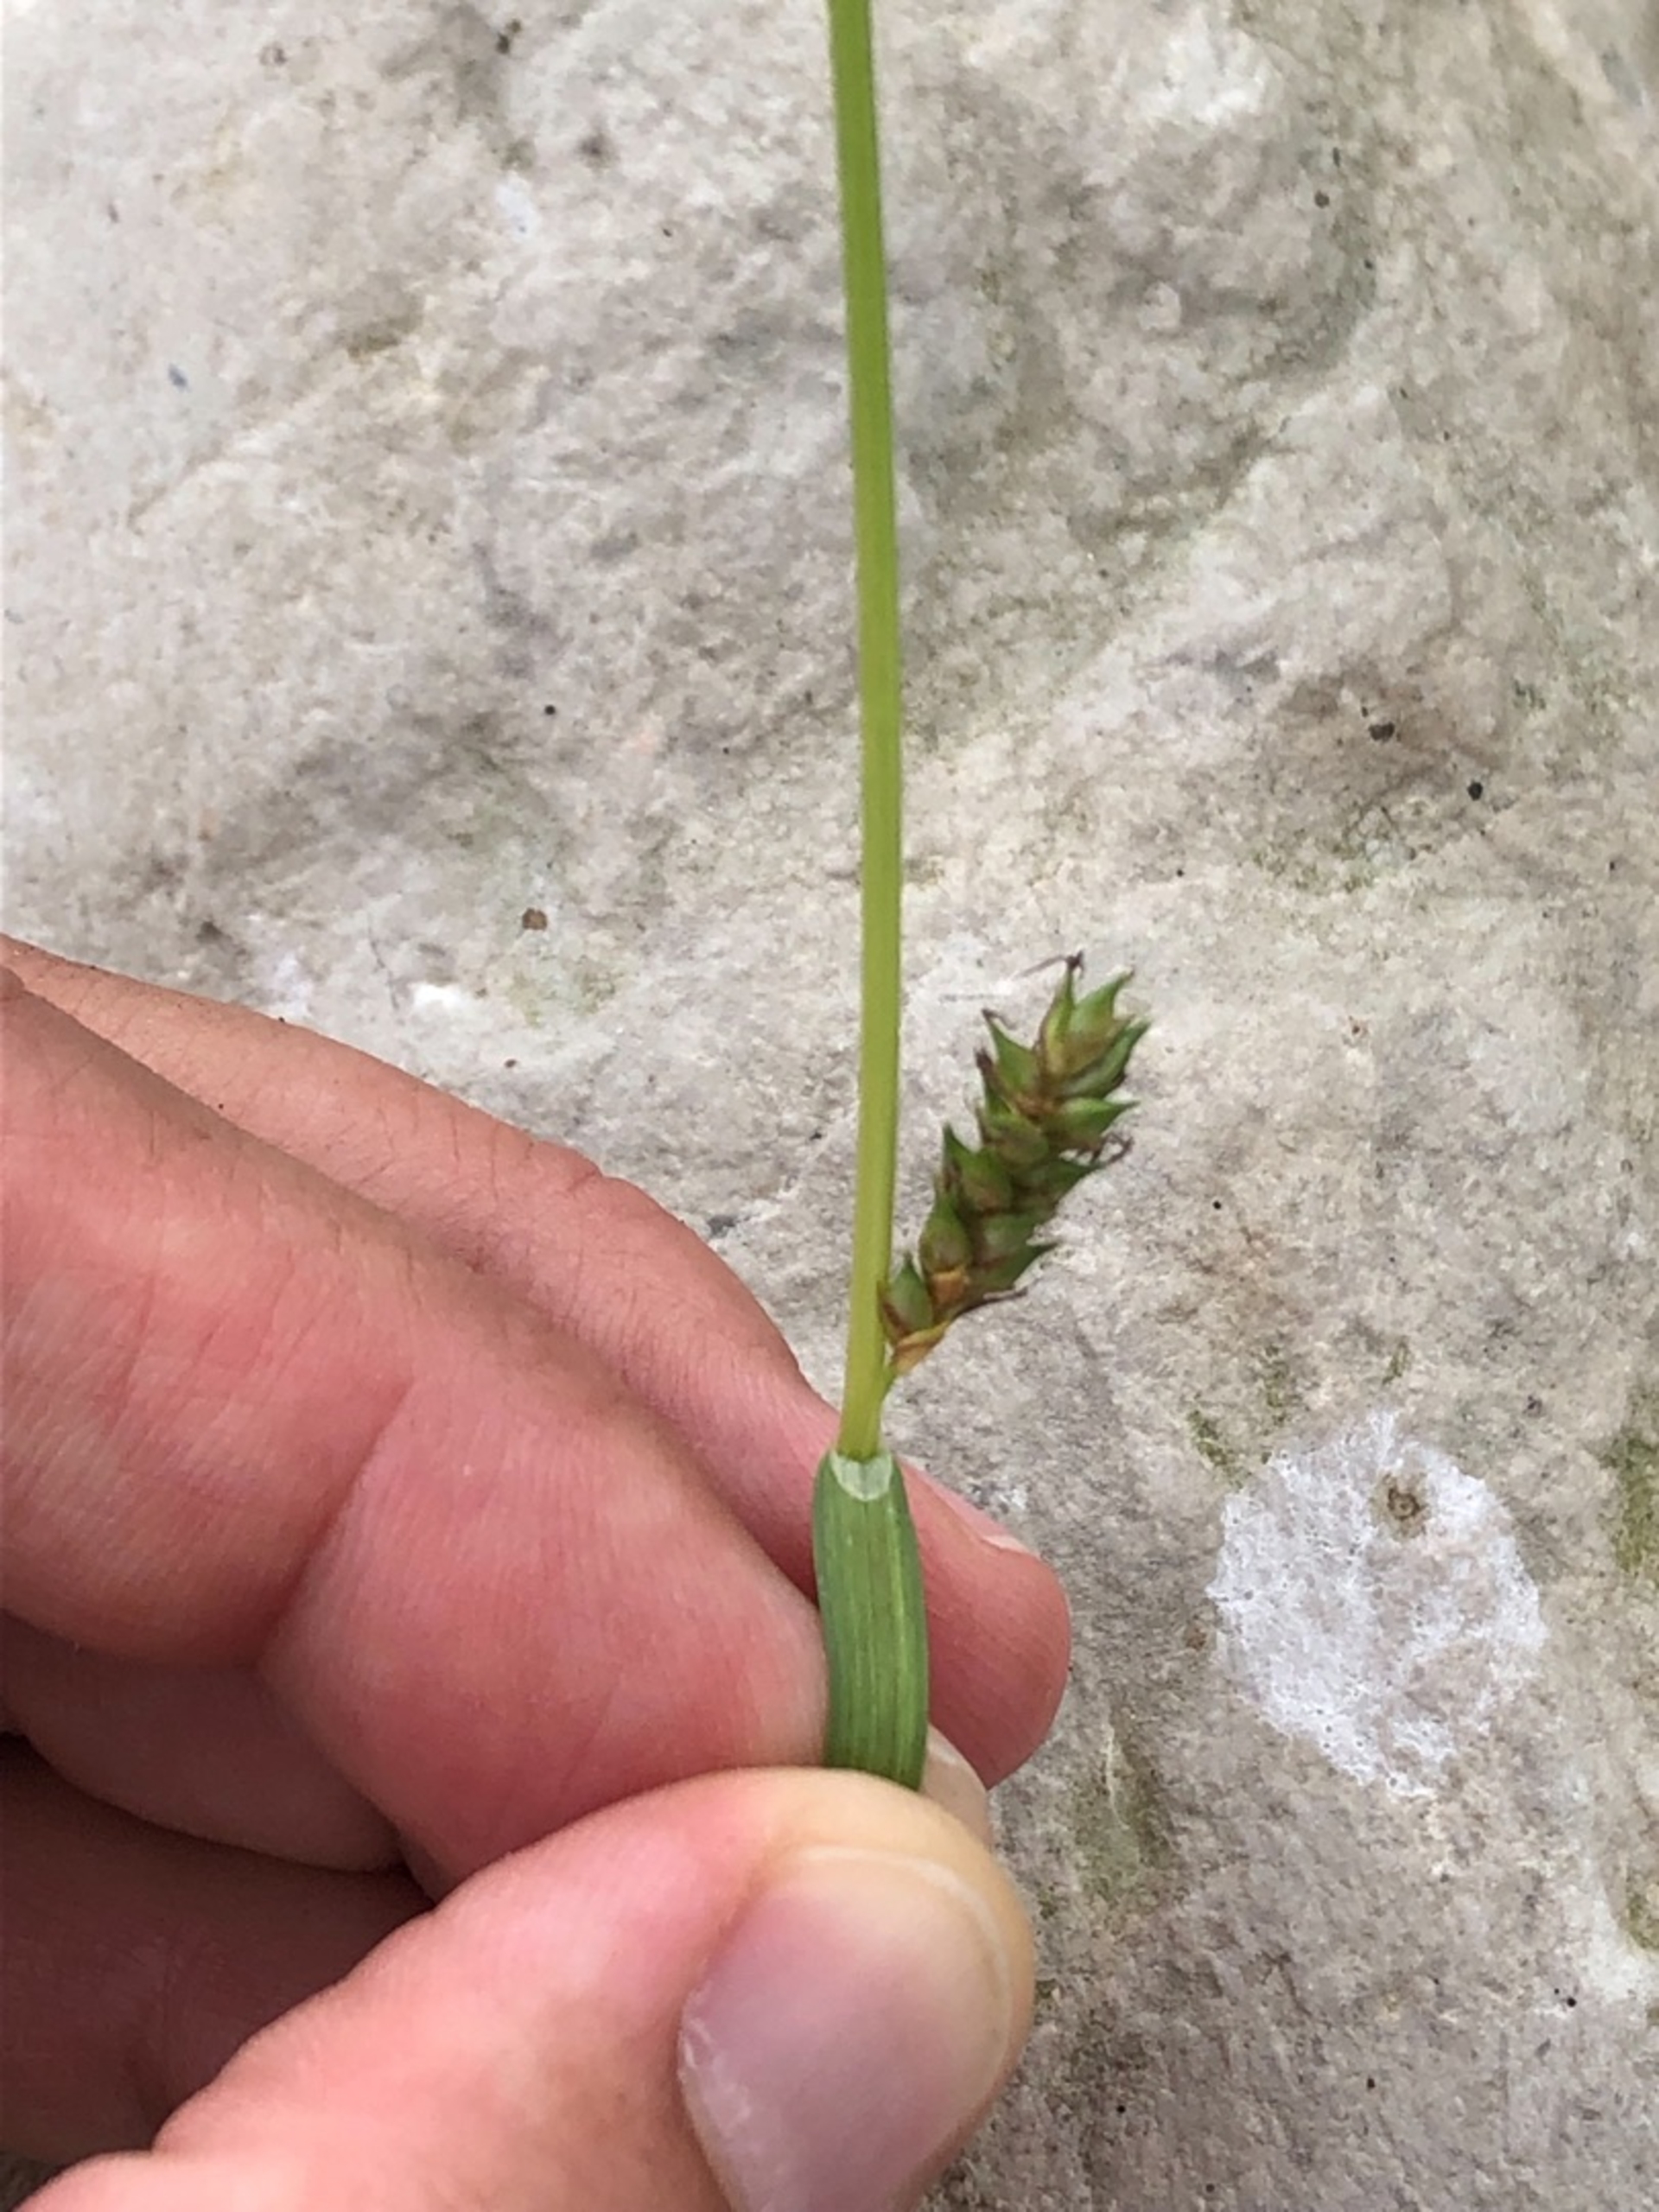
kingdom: Plantae
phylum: Tracheophyta
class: Liliopsida
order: Poales
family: Cyperaceae
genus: Carex
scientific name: Carex distans
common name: Fjernakset star
